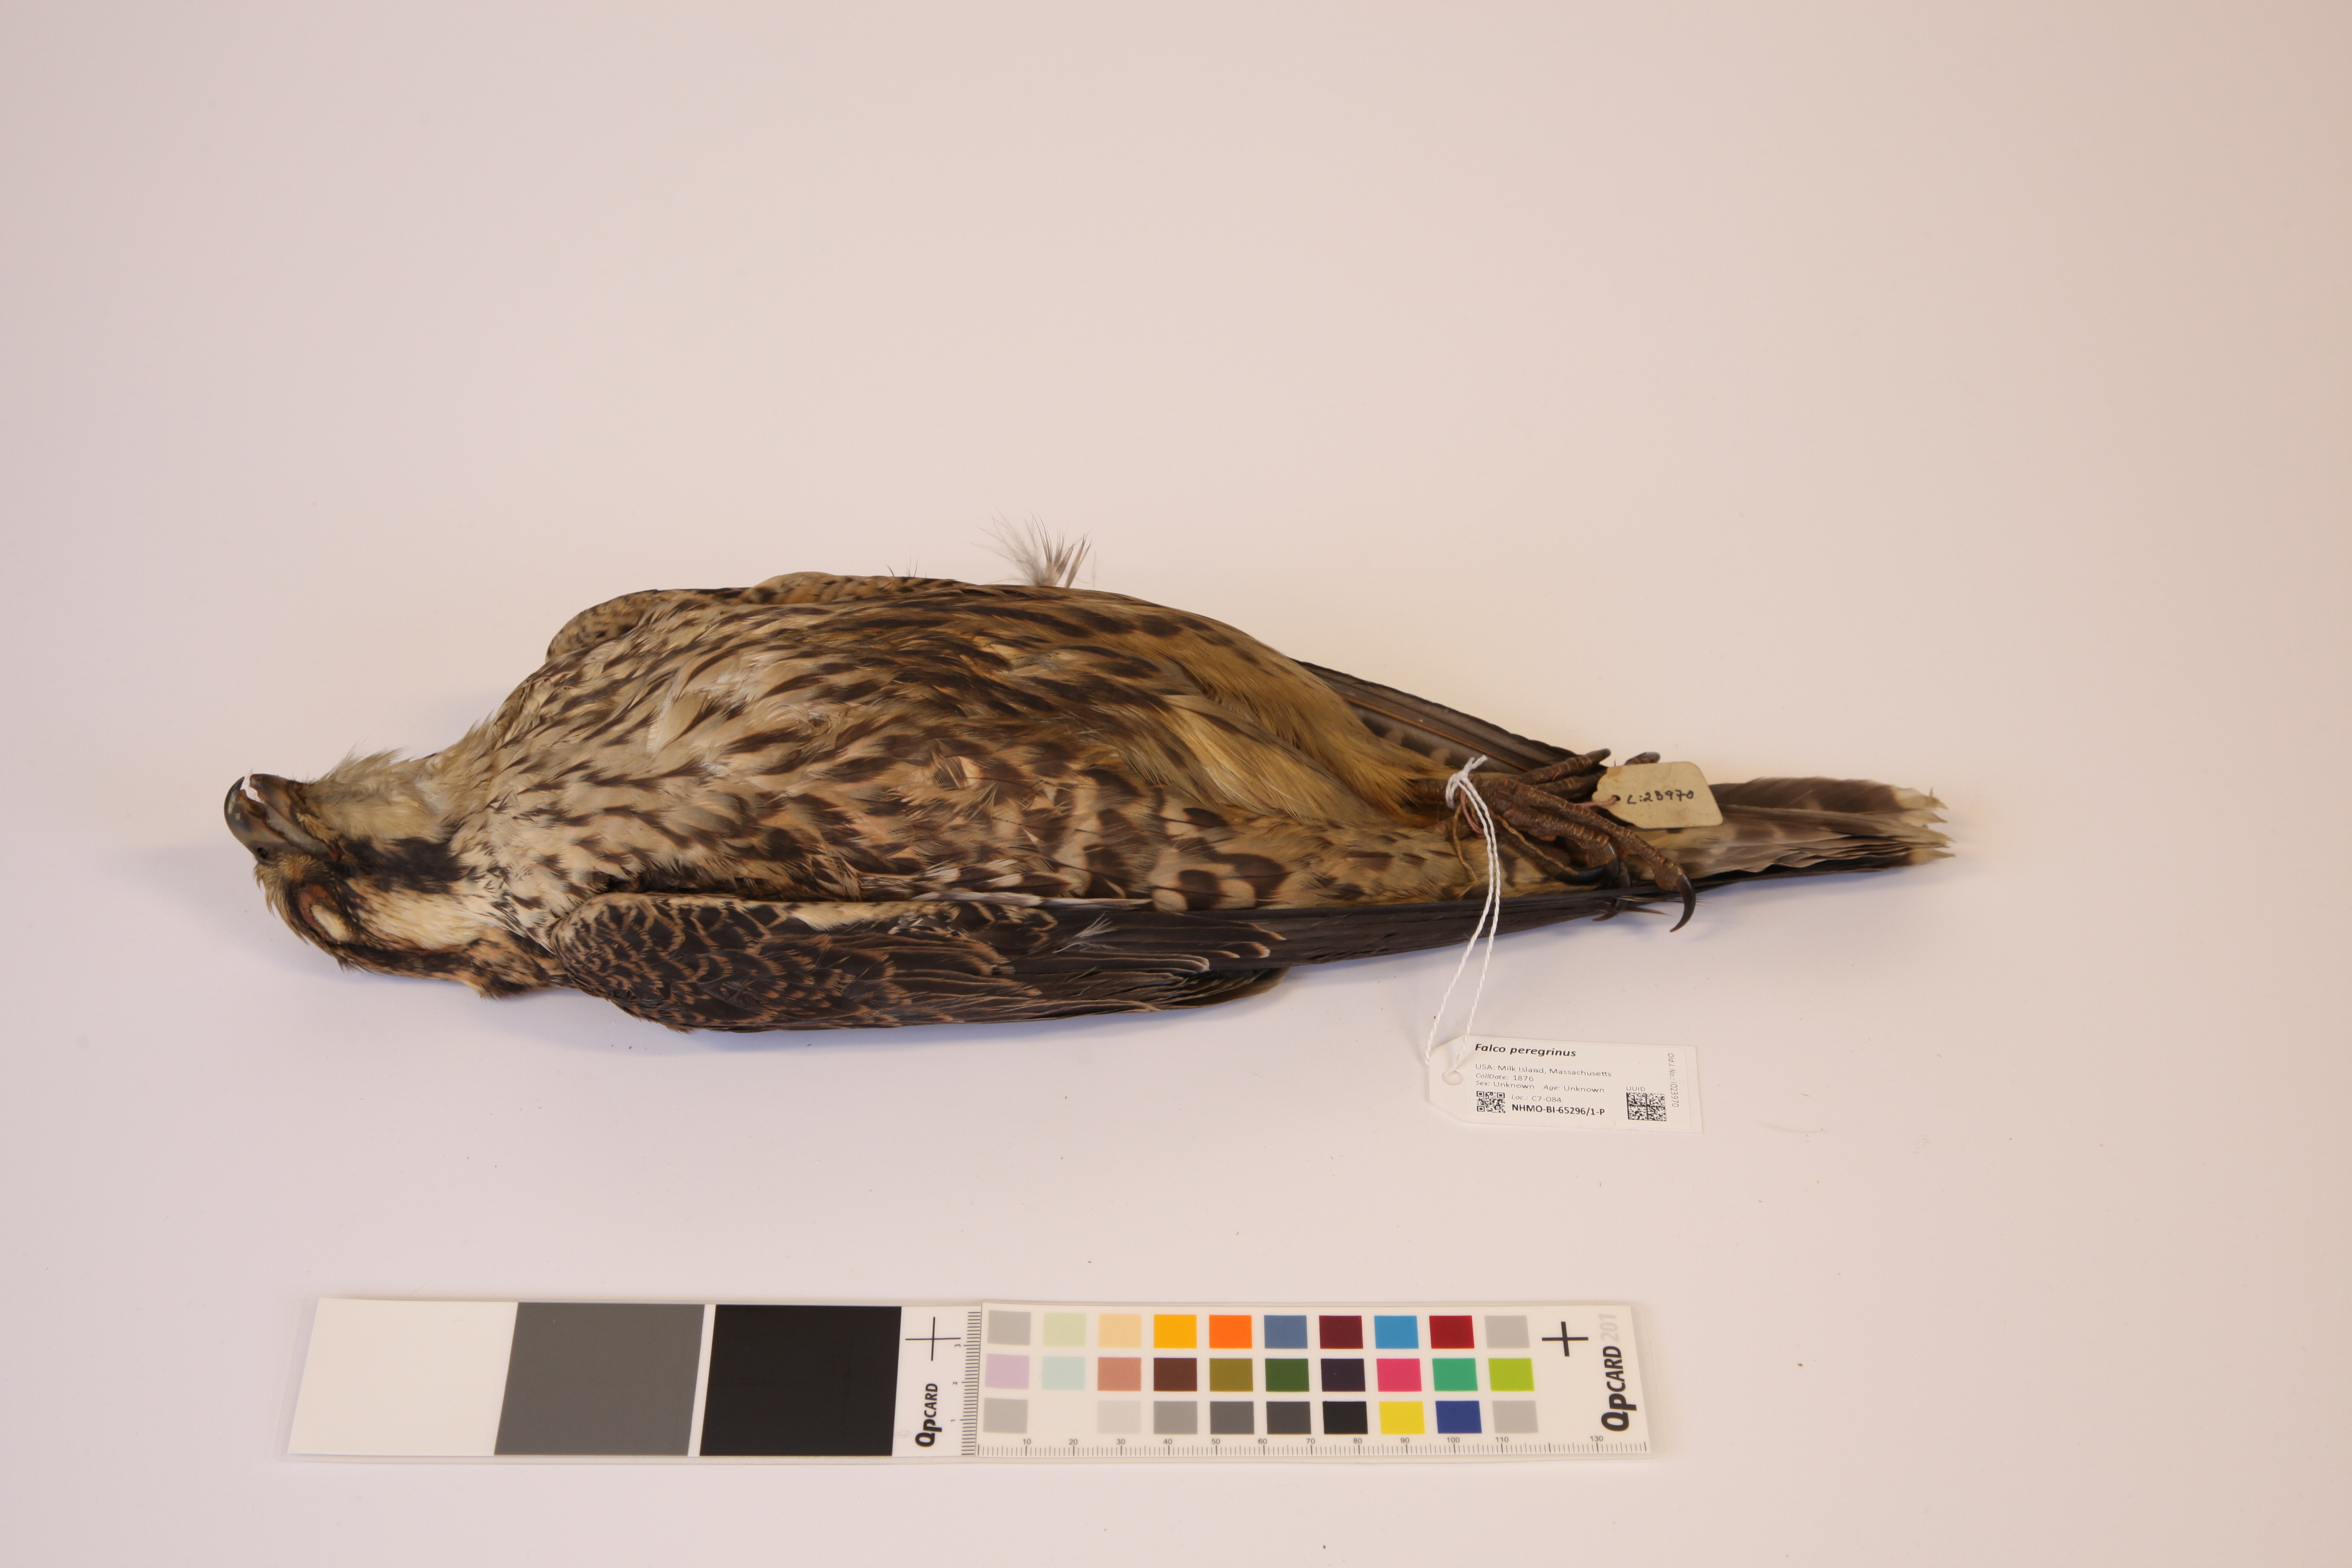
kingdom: Animalia
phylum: Chordata
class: Aves
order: Falconiformes
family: Falconidae
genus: Falco
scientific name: Falco peregrinus
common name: Peregrine falcon
